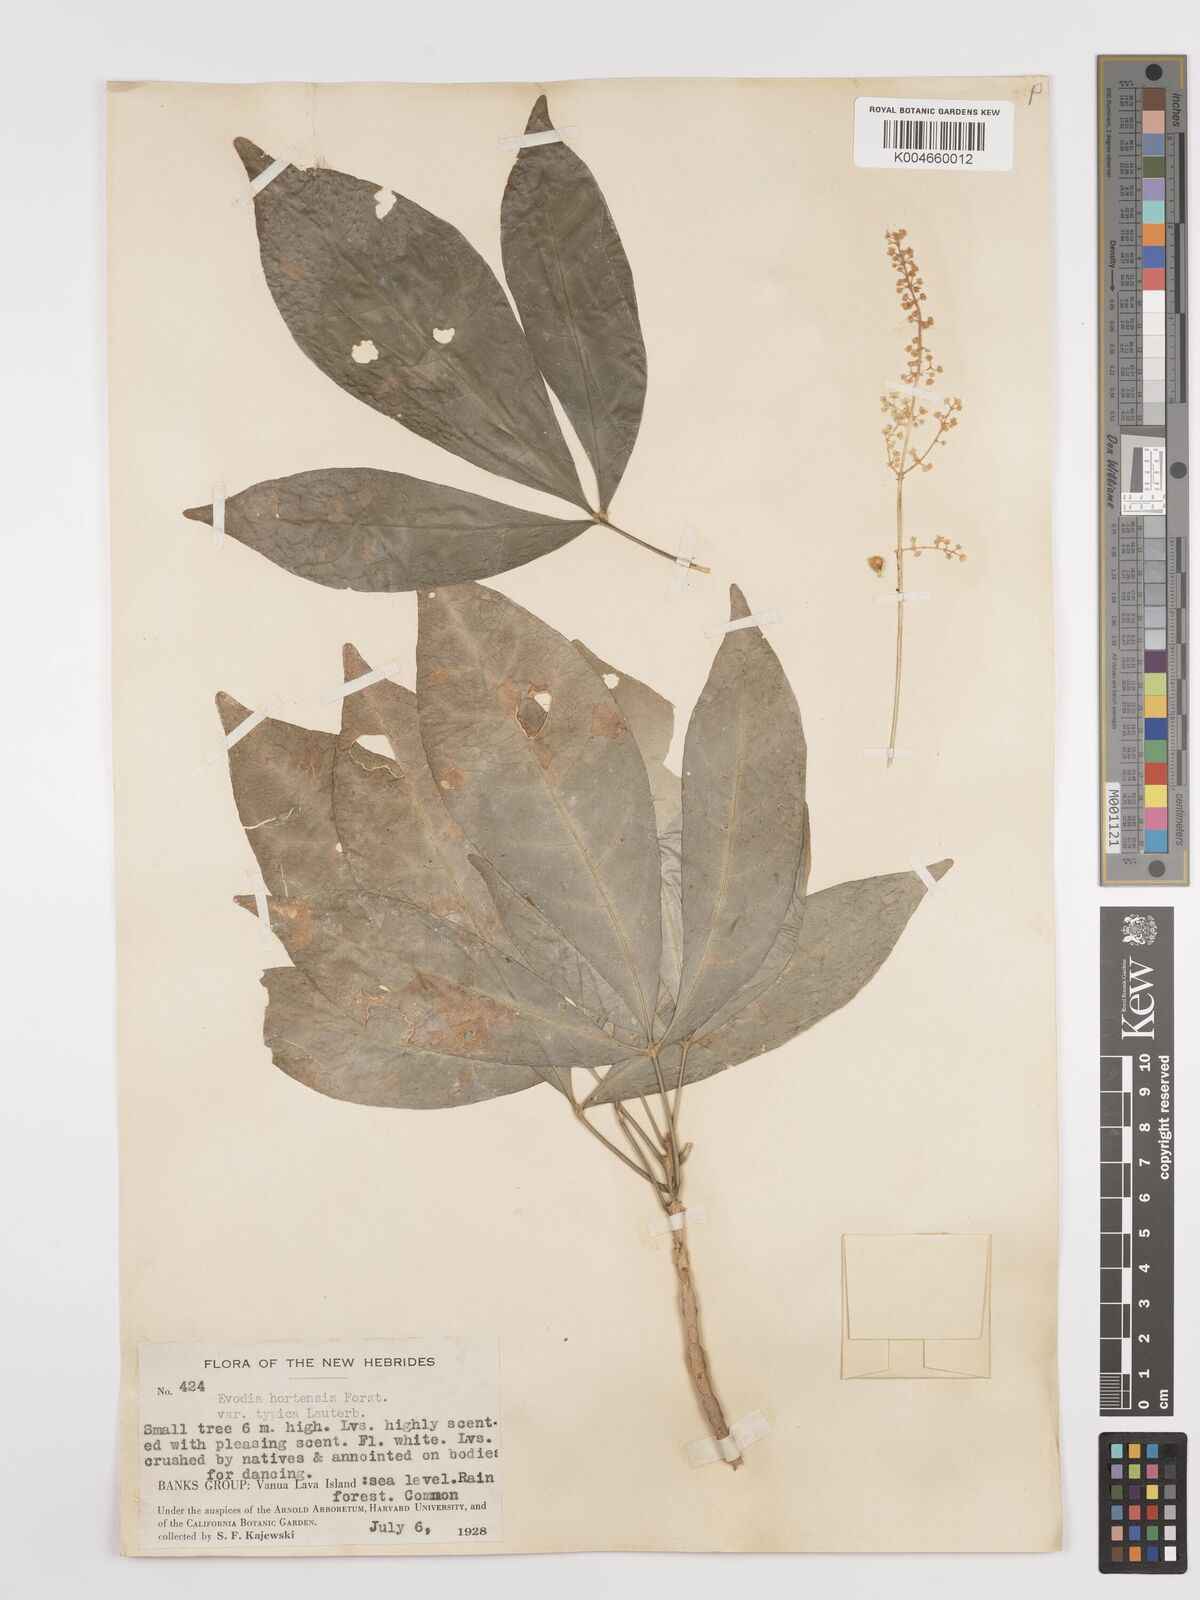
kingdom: Plantae
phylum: Tracheophyta
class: Magnoliopsida
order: Sapindales
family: Rutaceae
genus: Euodia
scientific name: Euodia hortensis
